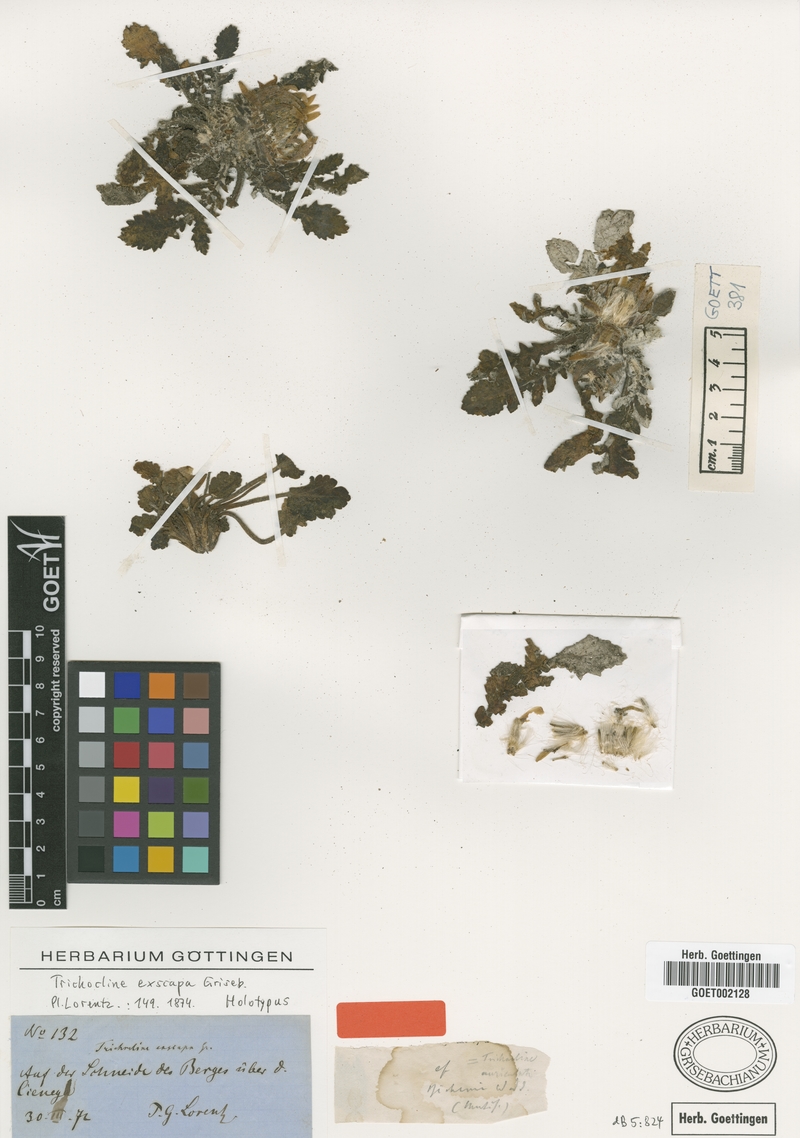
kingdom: Plantae
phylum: Tracheophyta
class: Magnoliopsida
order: Asterales
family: Asteraceae
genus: Trichocline
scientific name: Trichocline exscapa
